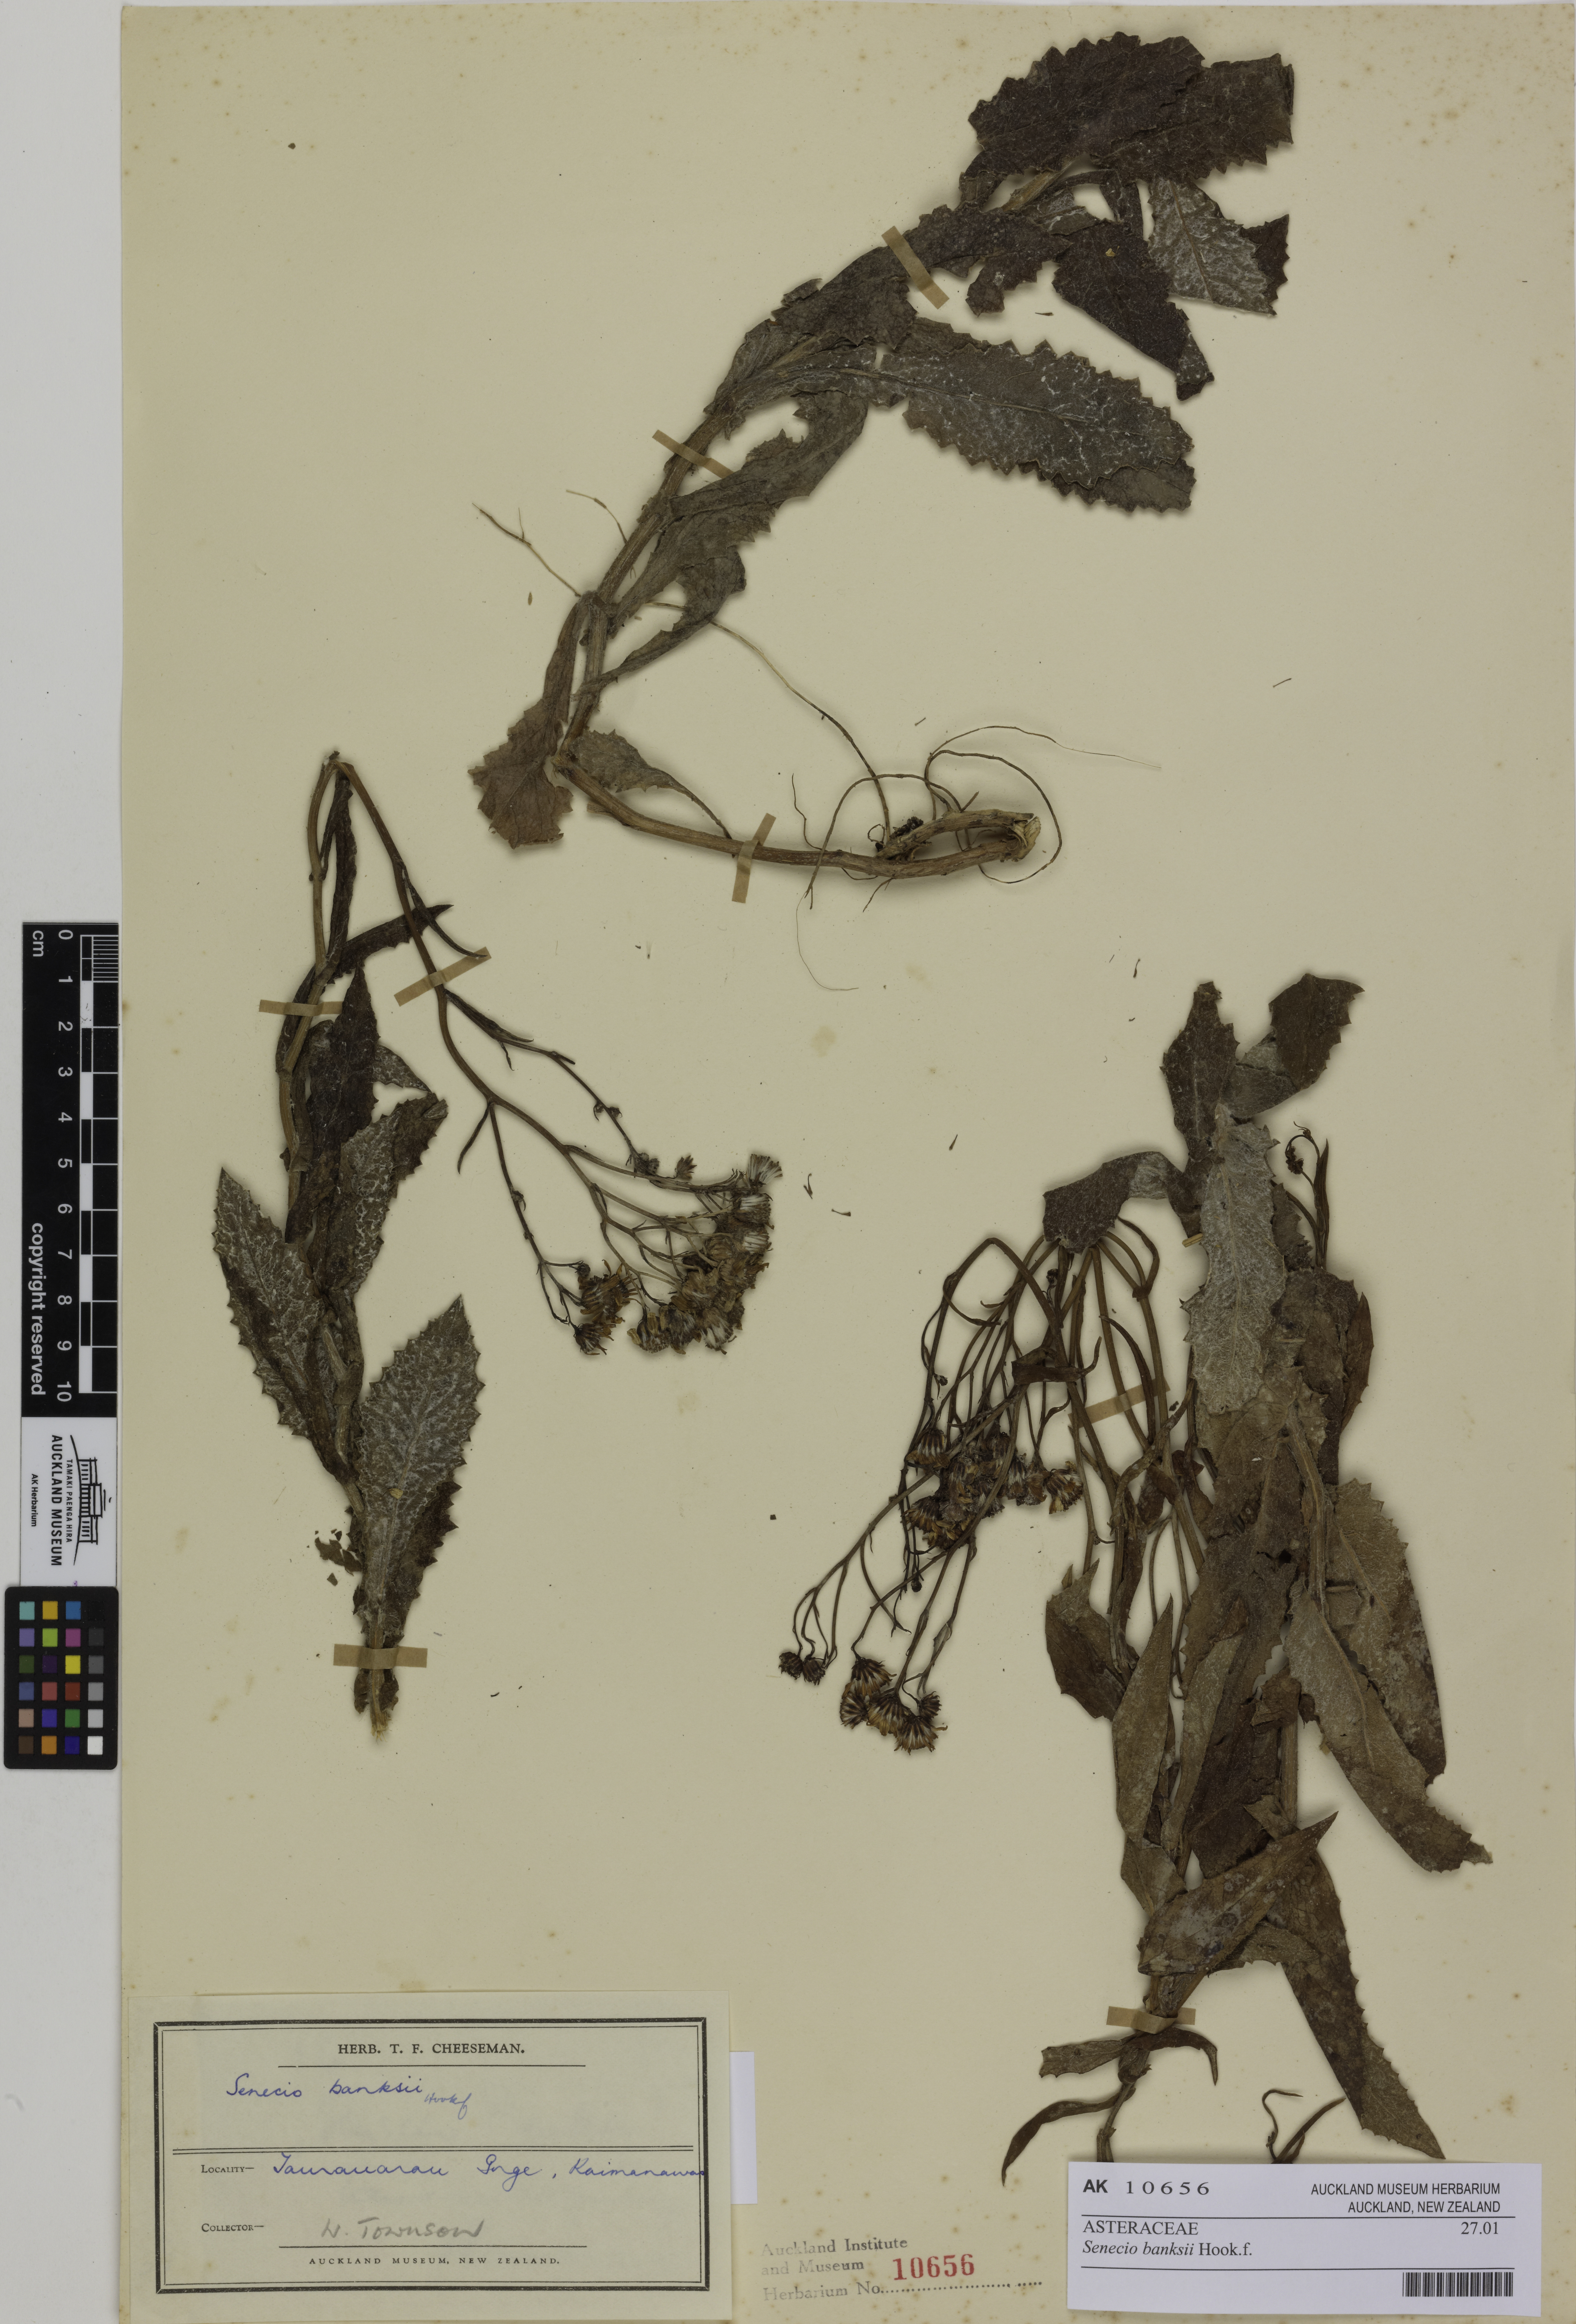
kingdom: Plantae
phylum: Tracheophyta
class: Magnoliopsida
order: Asterales
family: Asteraceae
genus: Senecio
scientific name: Senecio banksii
